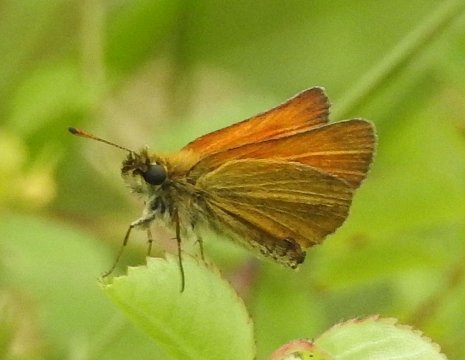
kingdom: Animalia
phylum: Arthropoda
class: Insecta
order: Lepidoptera
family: Hesperiidae
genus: Thymelicus
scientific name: Thymelicus lineola
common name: European Skipper
